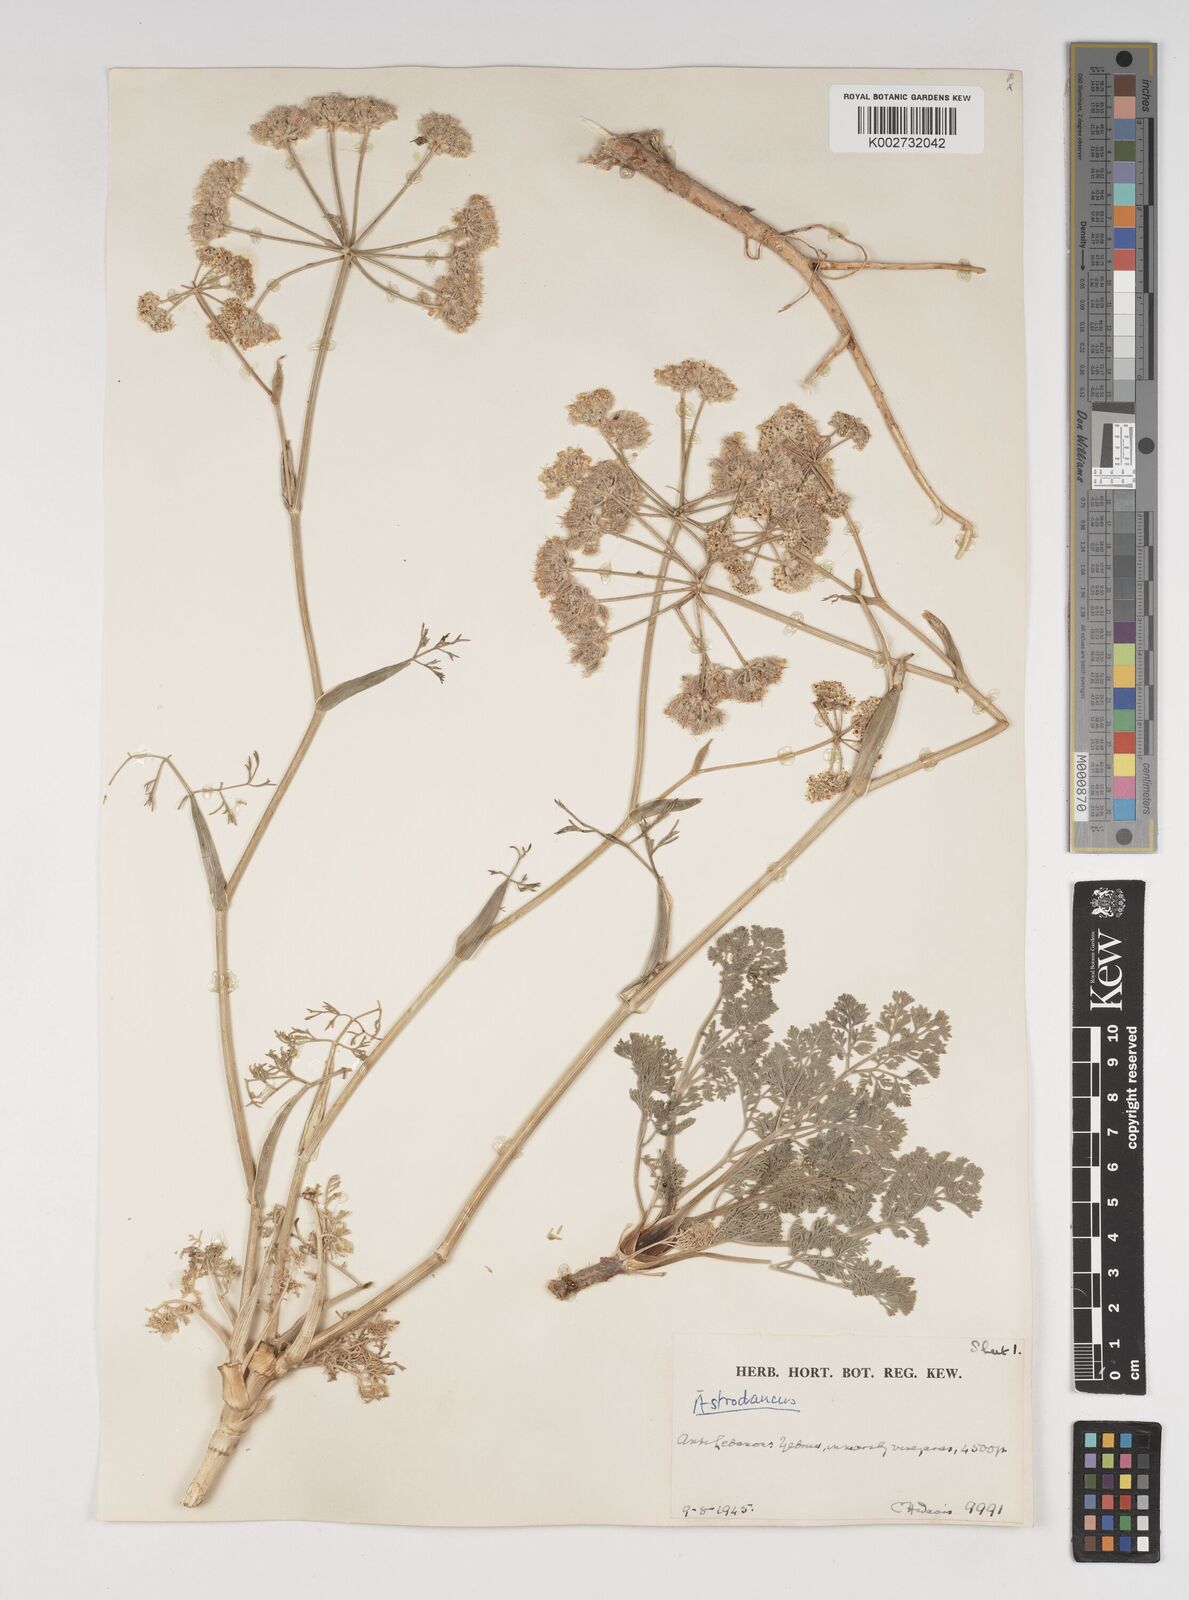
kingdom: Plantae
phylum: Tracheophyta
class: Magnoliopsida
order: Apiales
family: Apiaceae
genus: Astrodaucus
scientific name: Astrodaucus
